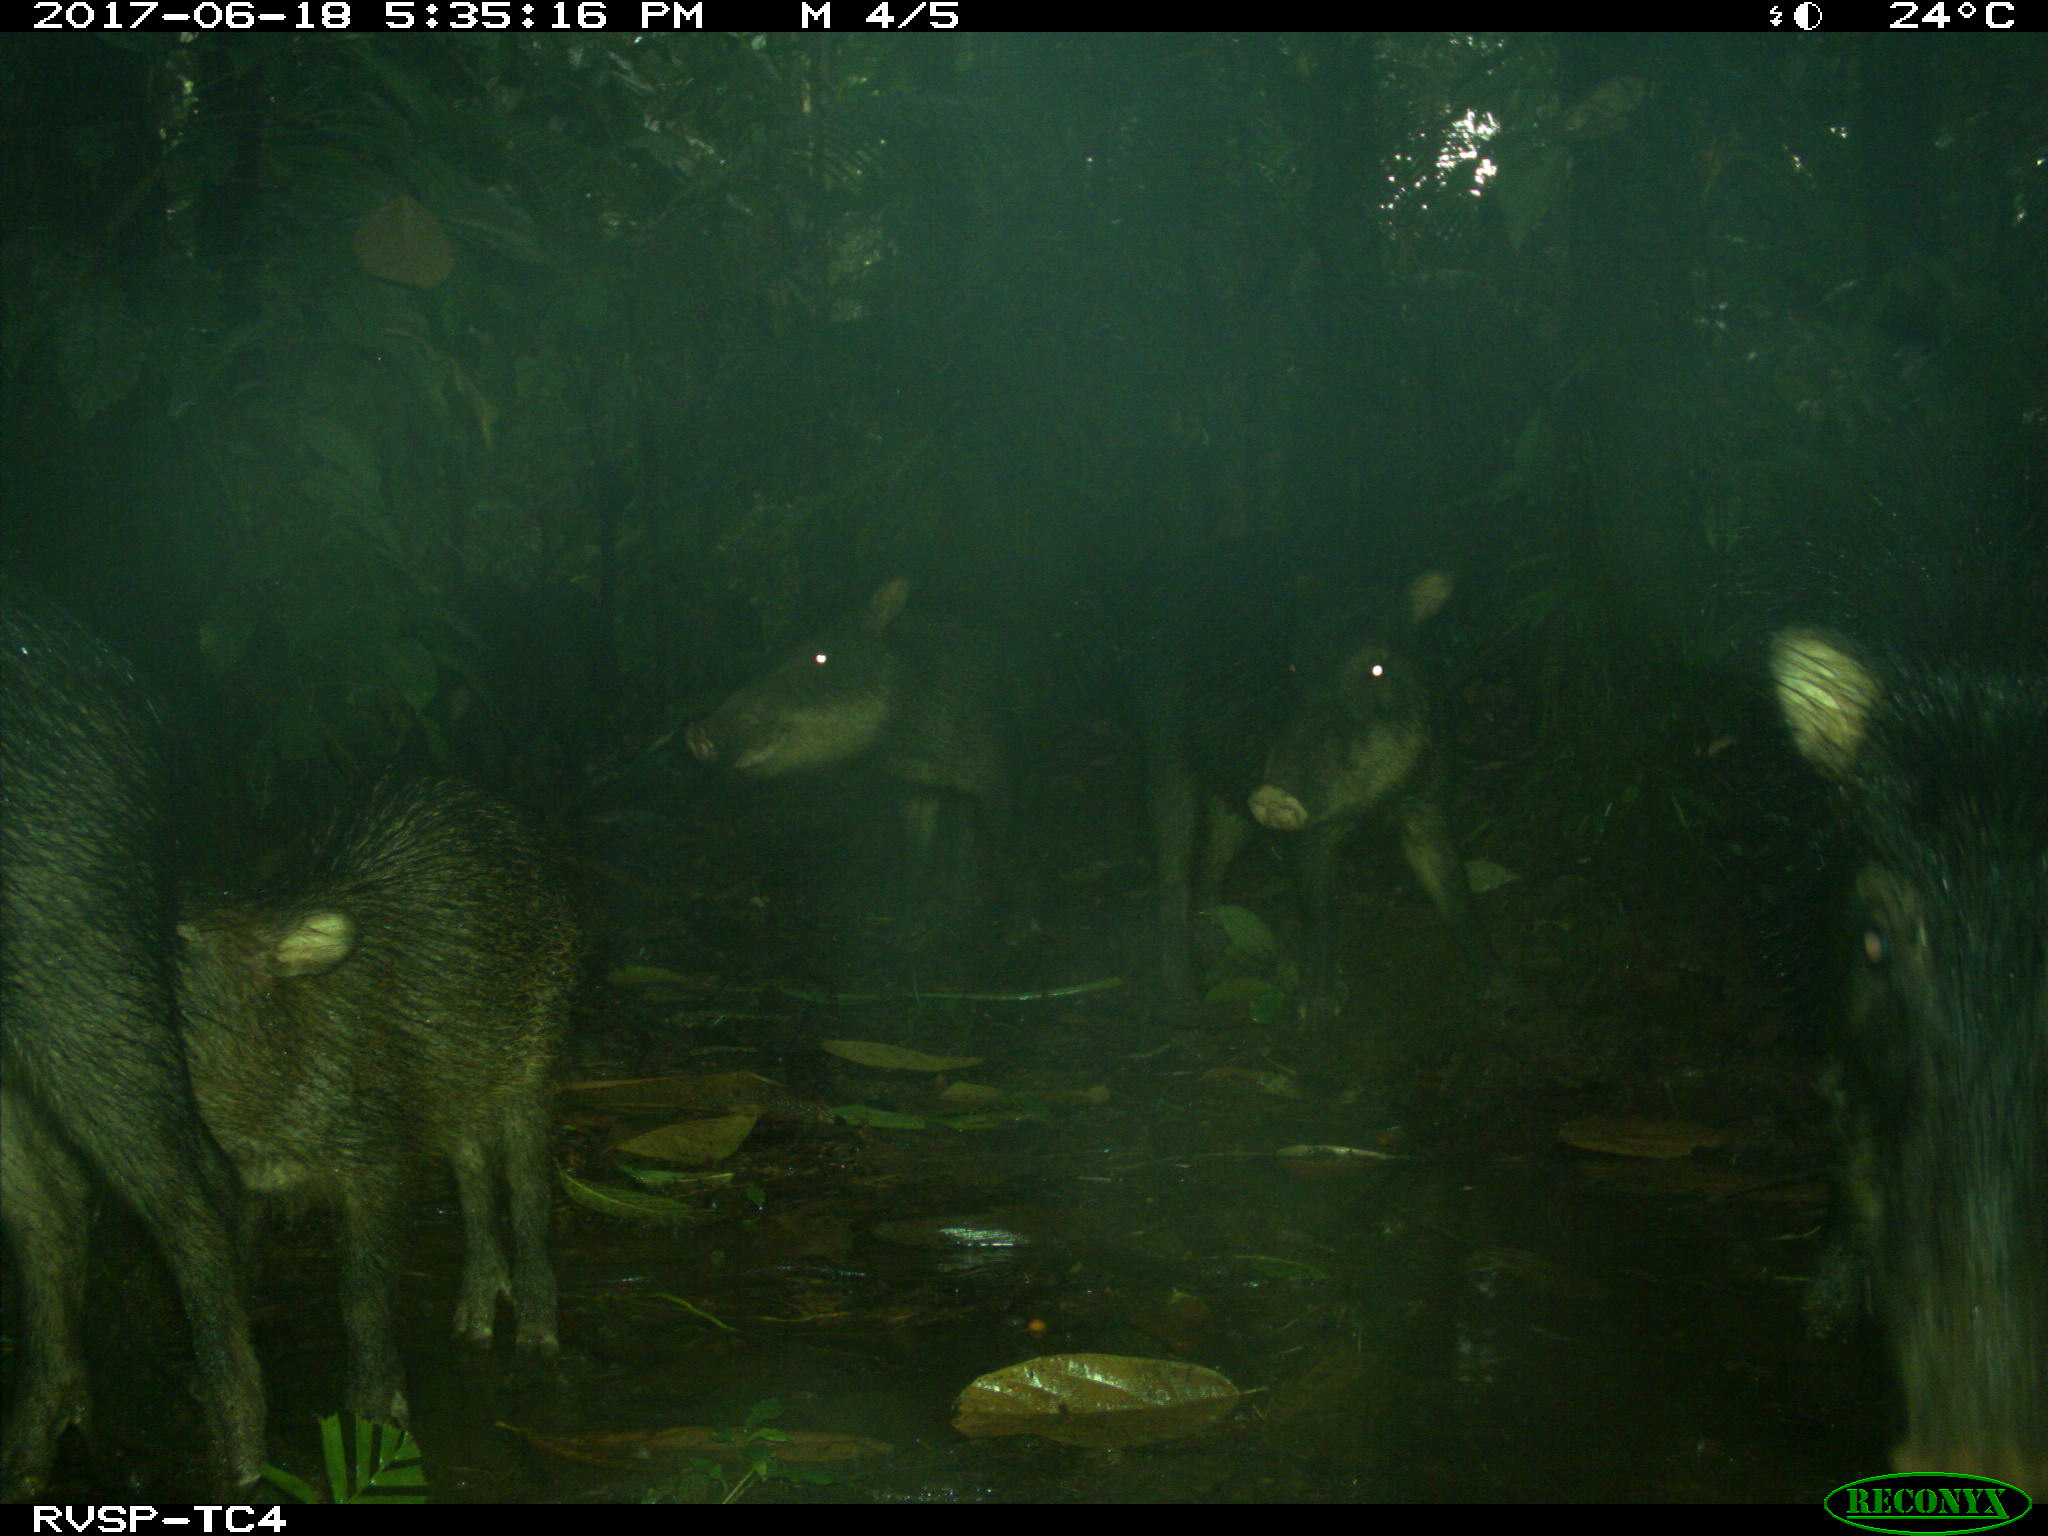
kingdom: Animalia
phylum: Chordata
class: Mammalia
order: Artiodactyla
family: Tayassuidae
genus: Tayassu
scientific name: Tayassu pecari
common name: White-lipped peccary
